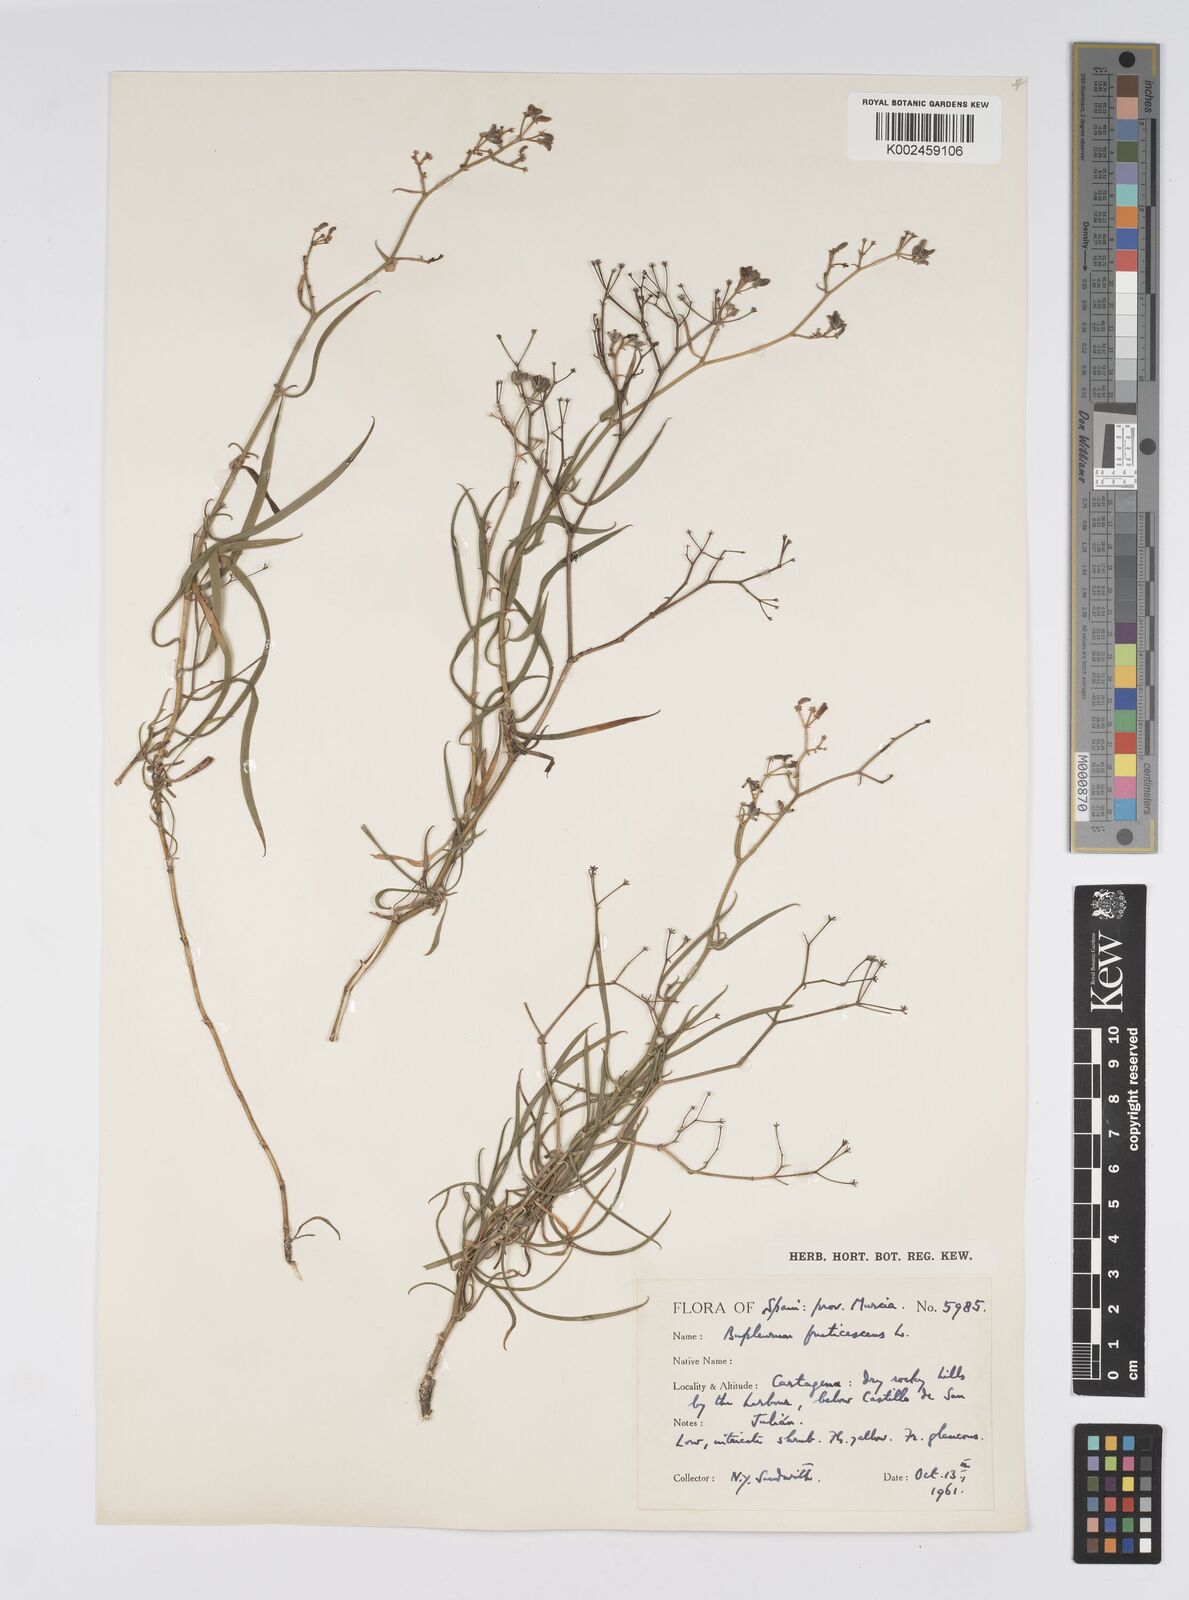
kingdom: Plantae
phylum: Tracheophyta
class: Magnoliopsida
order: Apiales
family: Apiaceae
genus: Bupleurum
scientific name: Bupleurum fruticescens
